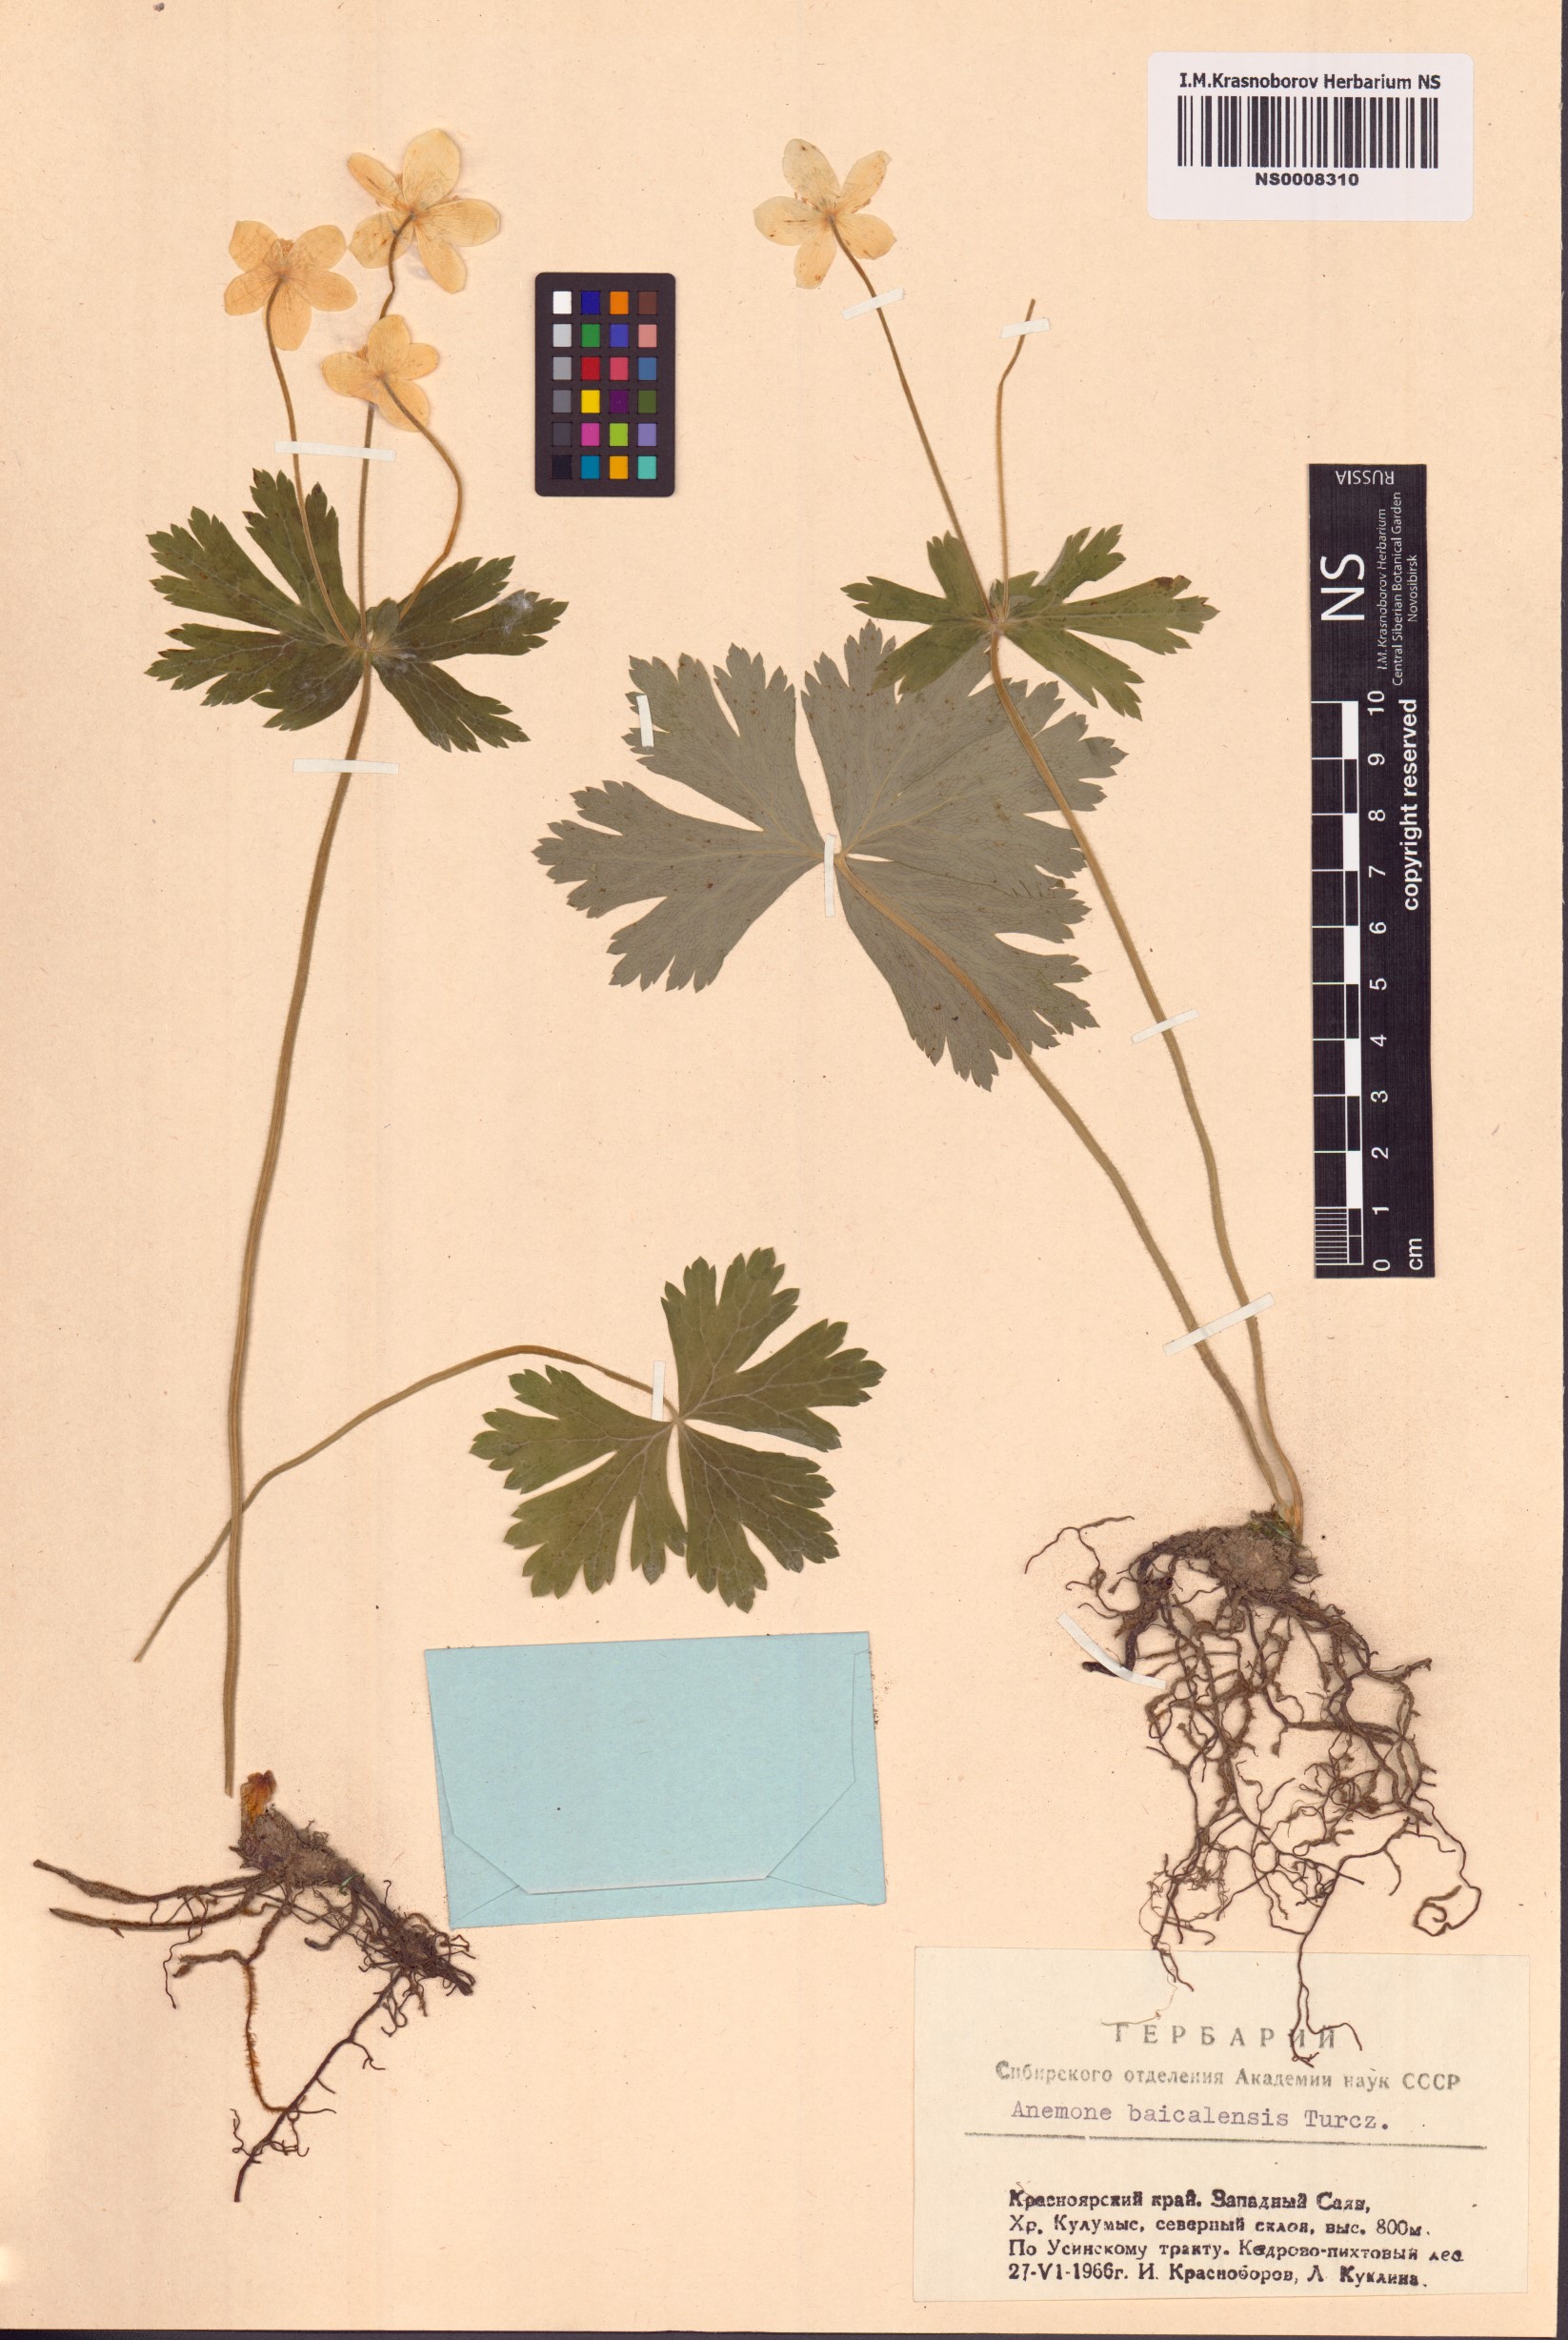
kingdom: Plantae
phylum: Tracheophyta
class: Magnoliopsida
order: Ranunculales
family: Ranunculaceae
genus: Anemonastrum
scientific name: Anemonastrum baicalense
